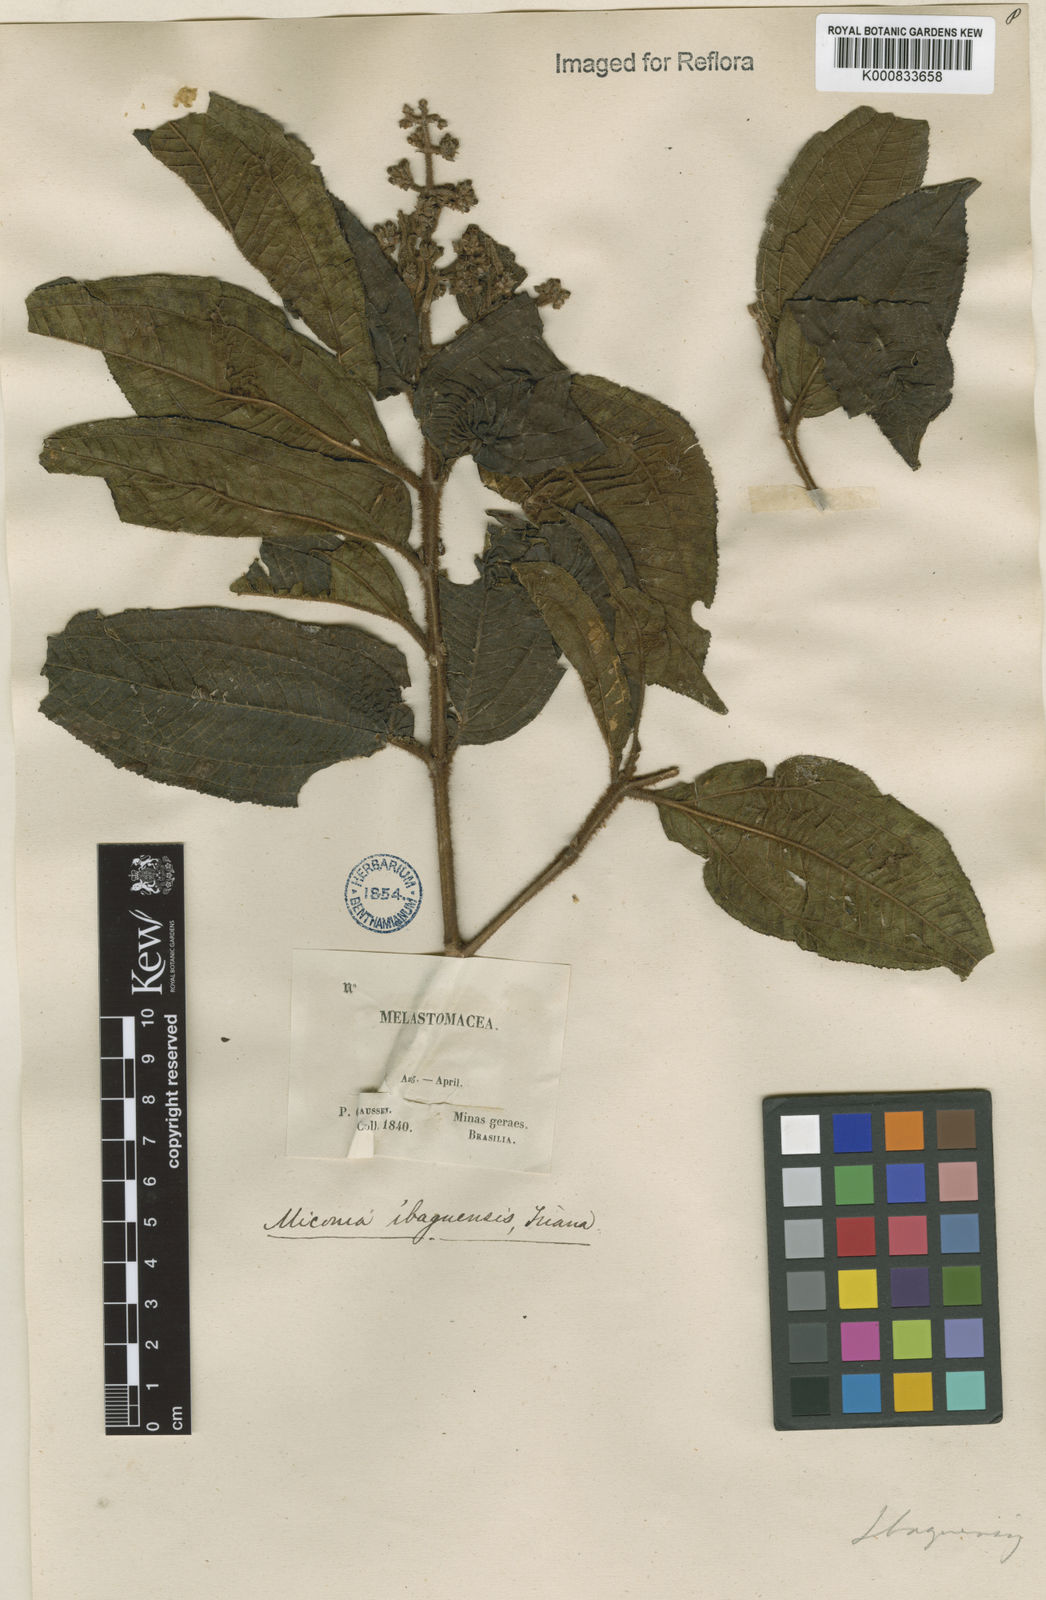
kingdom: Plantae
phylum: Tracheophyta
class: Magnoliopsida
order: Myrtales
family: Melastomataceae
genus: Miconia
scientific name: Miconia ibaguensis
